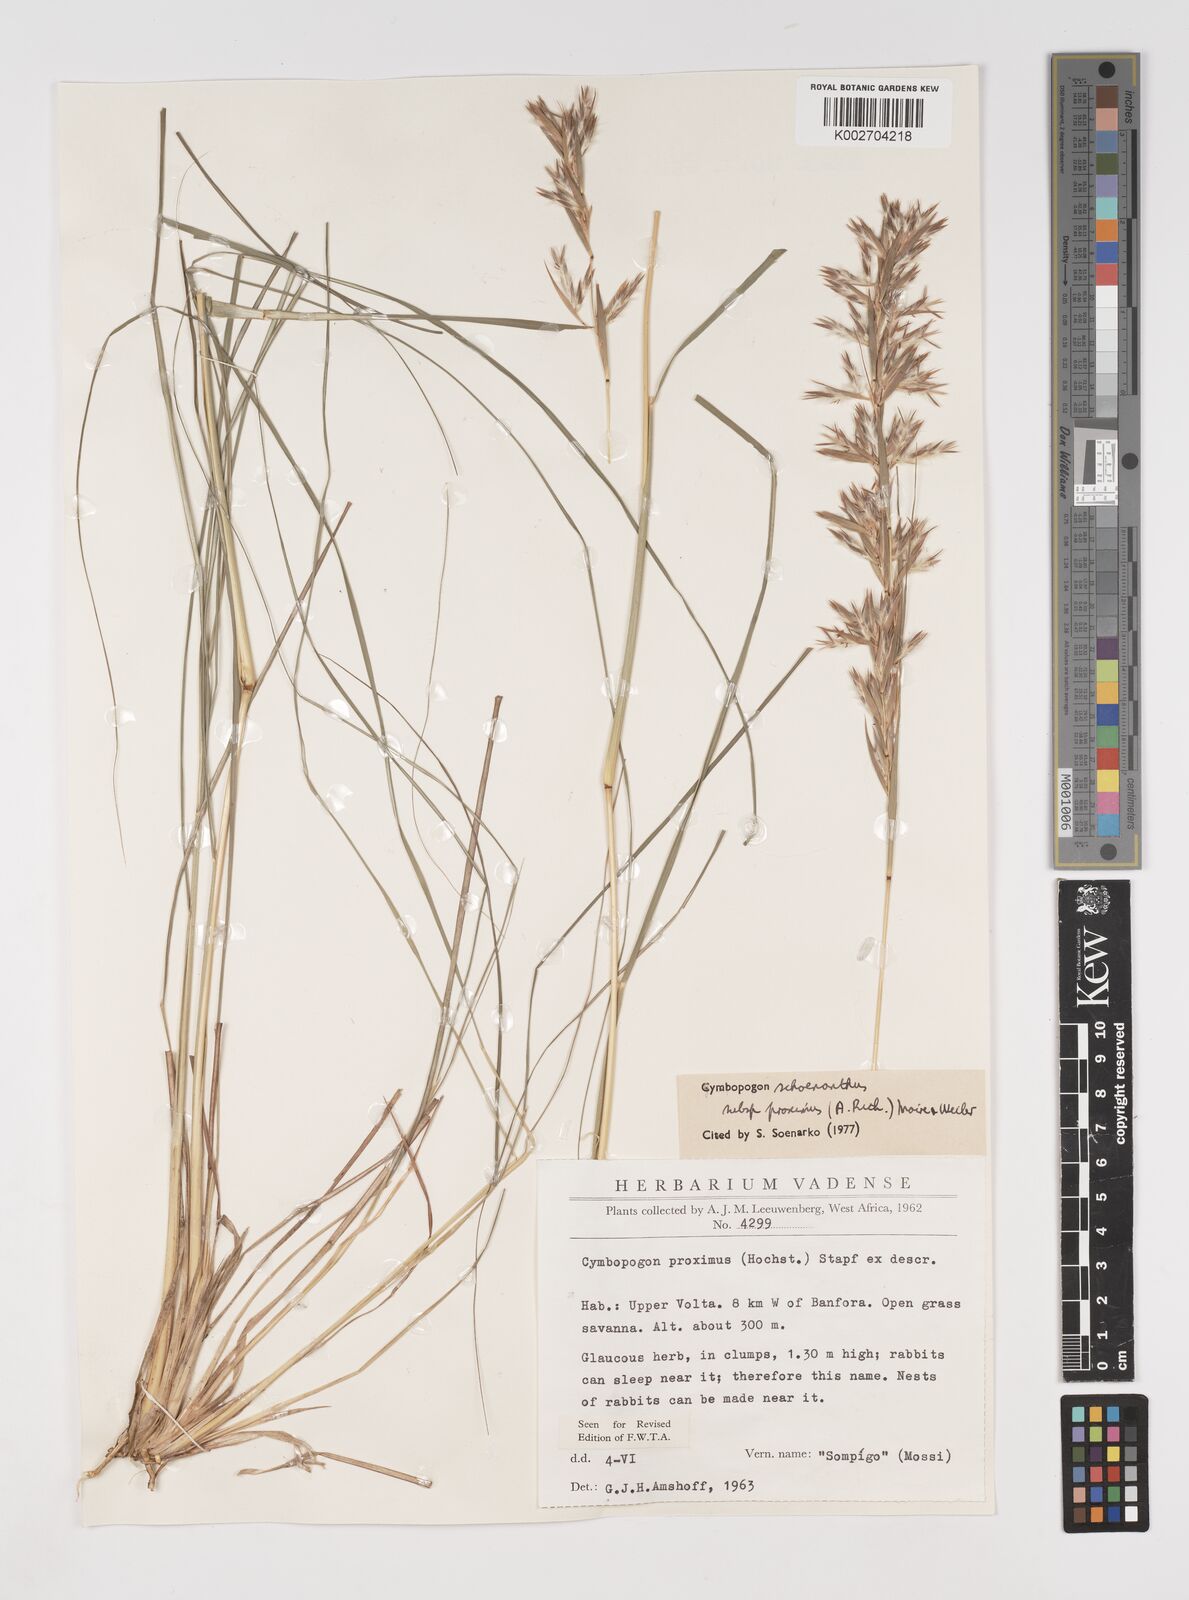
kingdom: Plantae
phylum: Tracheophyta
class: Liliopsida
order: Poales
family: Poaceae
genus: Cymbopogon
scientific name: Cymbopogon schoenanthus
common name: Geranium grass
